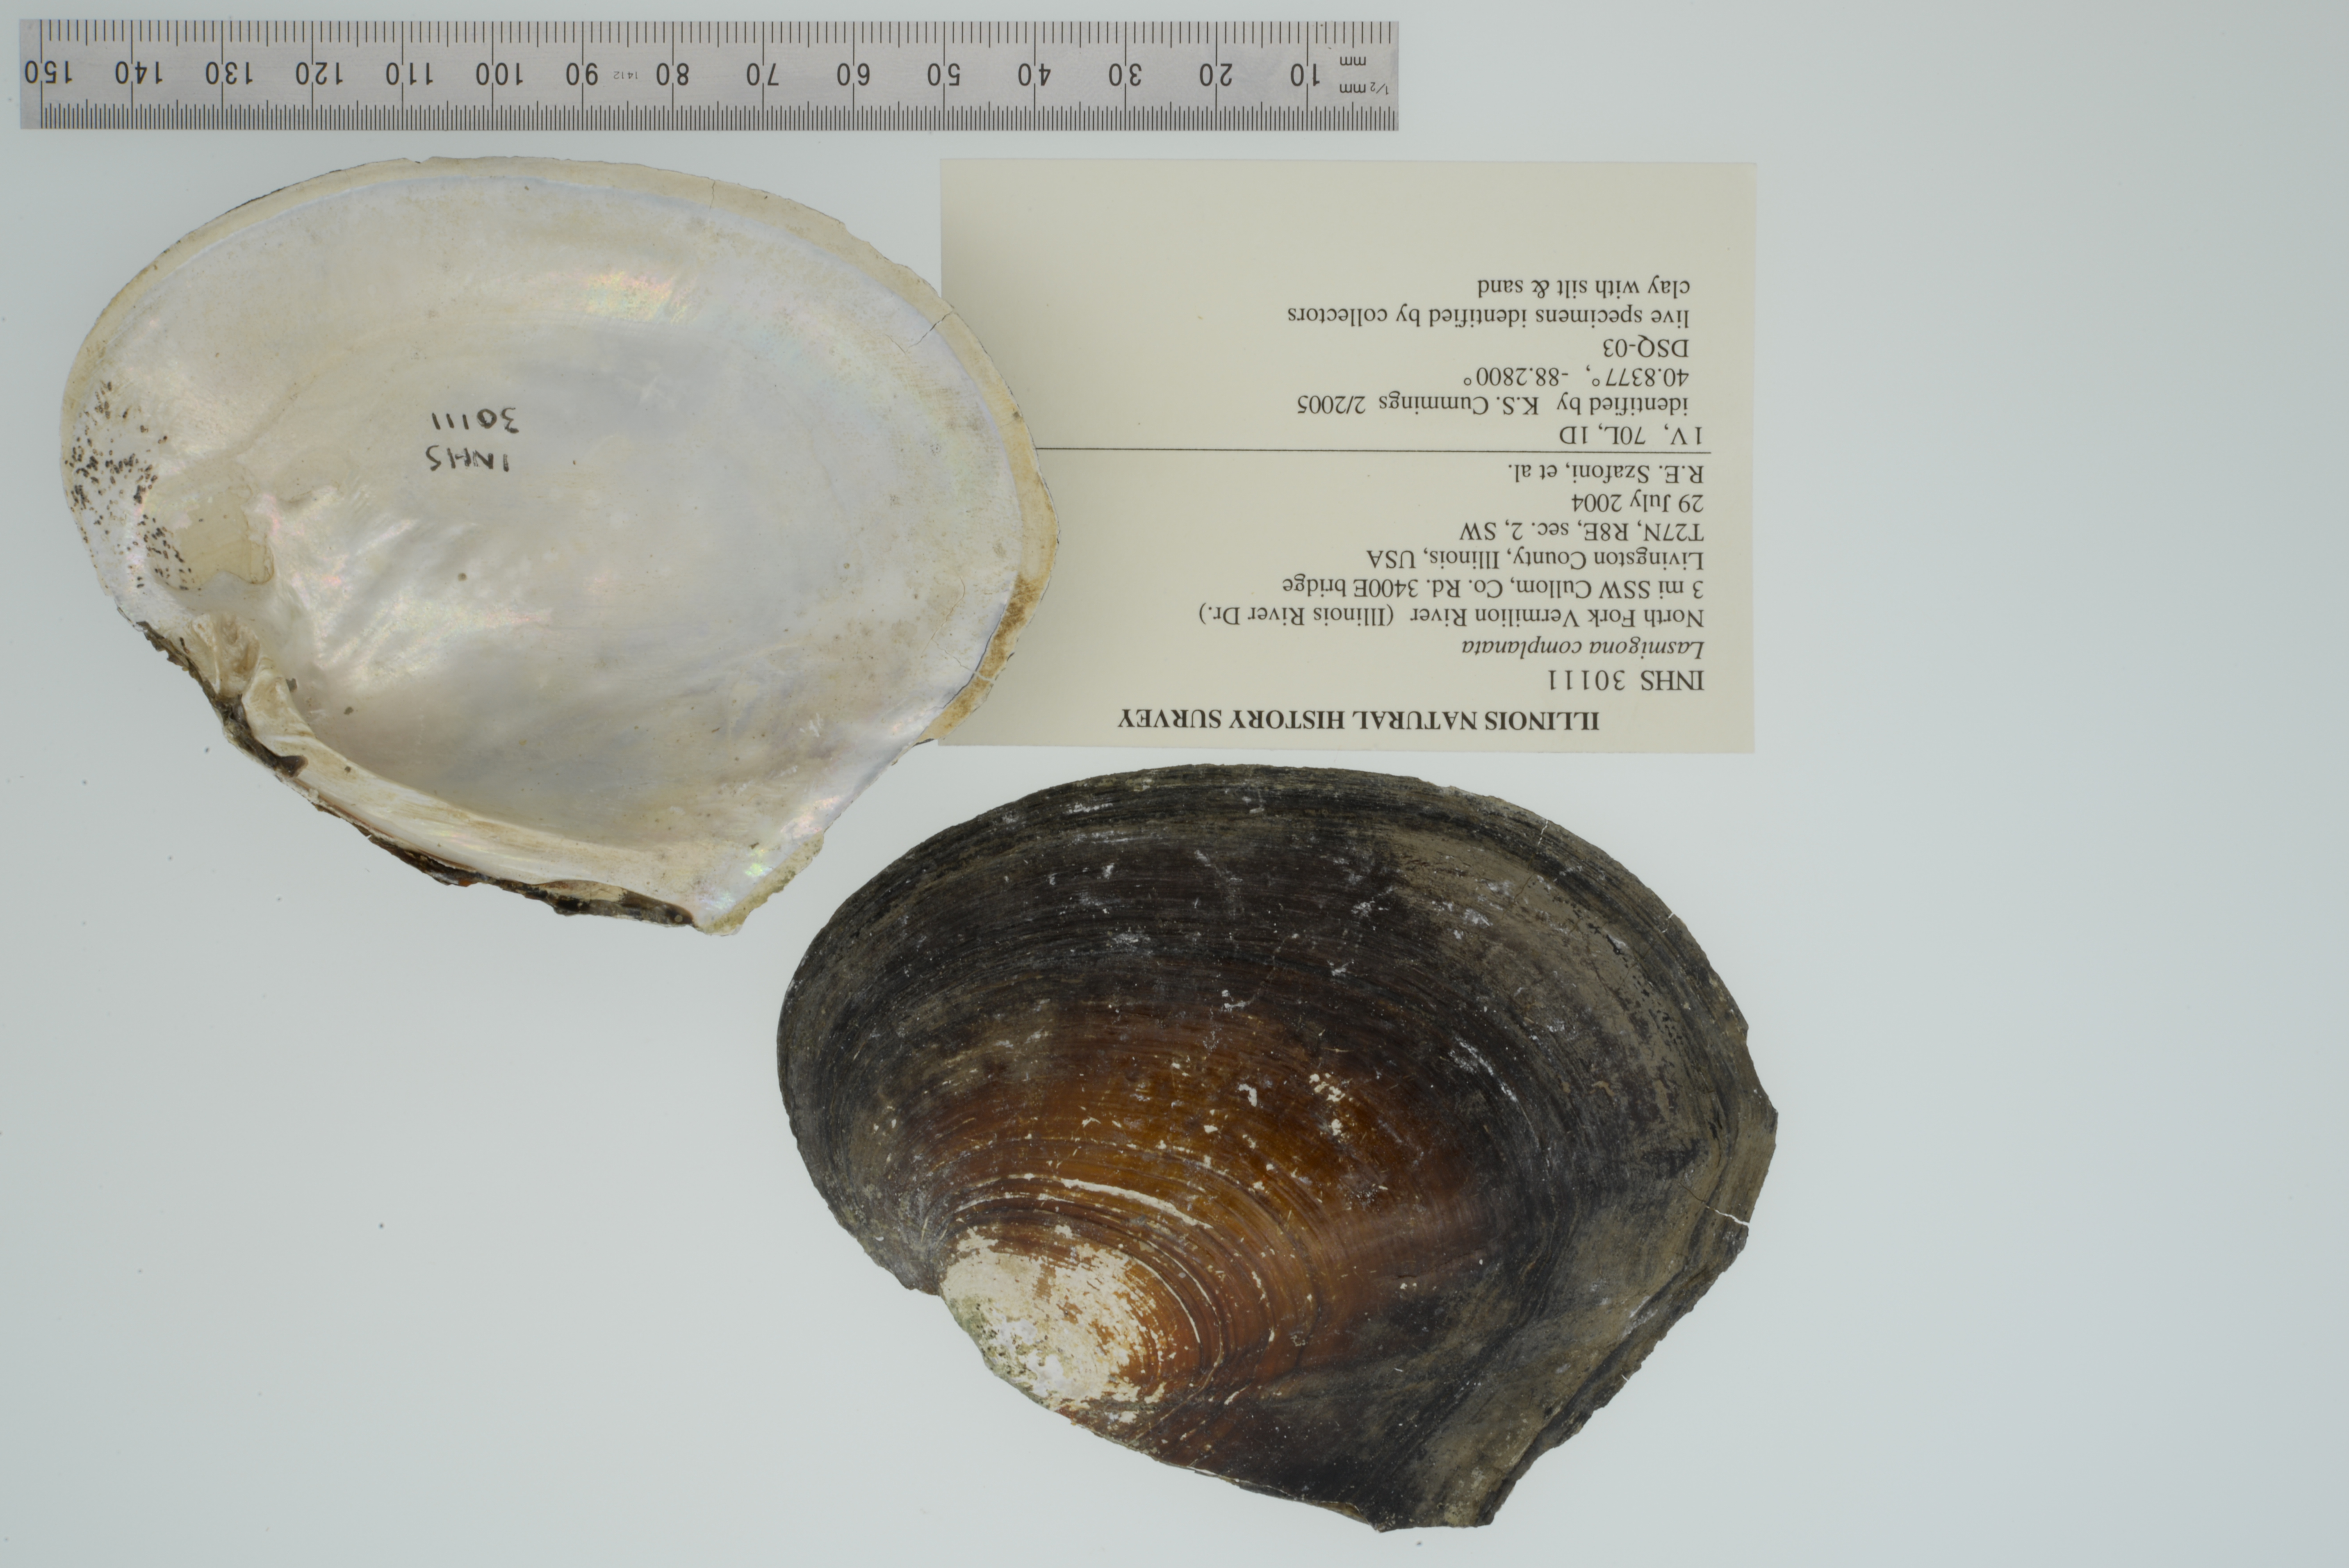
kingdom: Animalia
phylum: Mollusca
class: Bivalvia
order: Unionida
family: Unionidae
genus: Lasmigona
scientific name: Lasmigona complanata
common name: White heelsplitter
